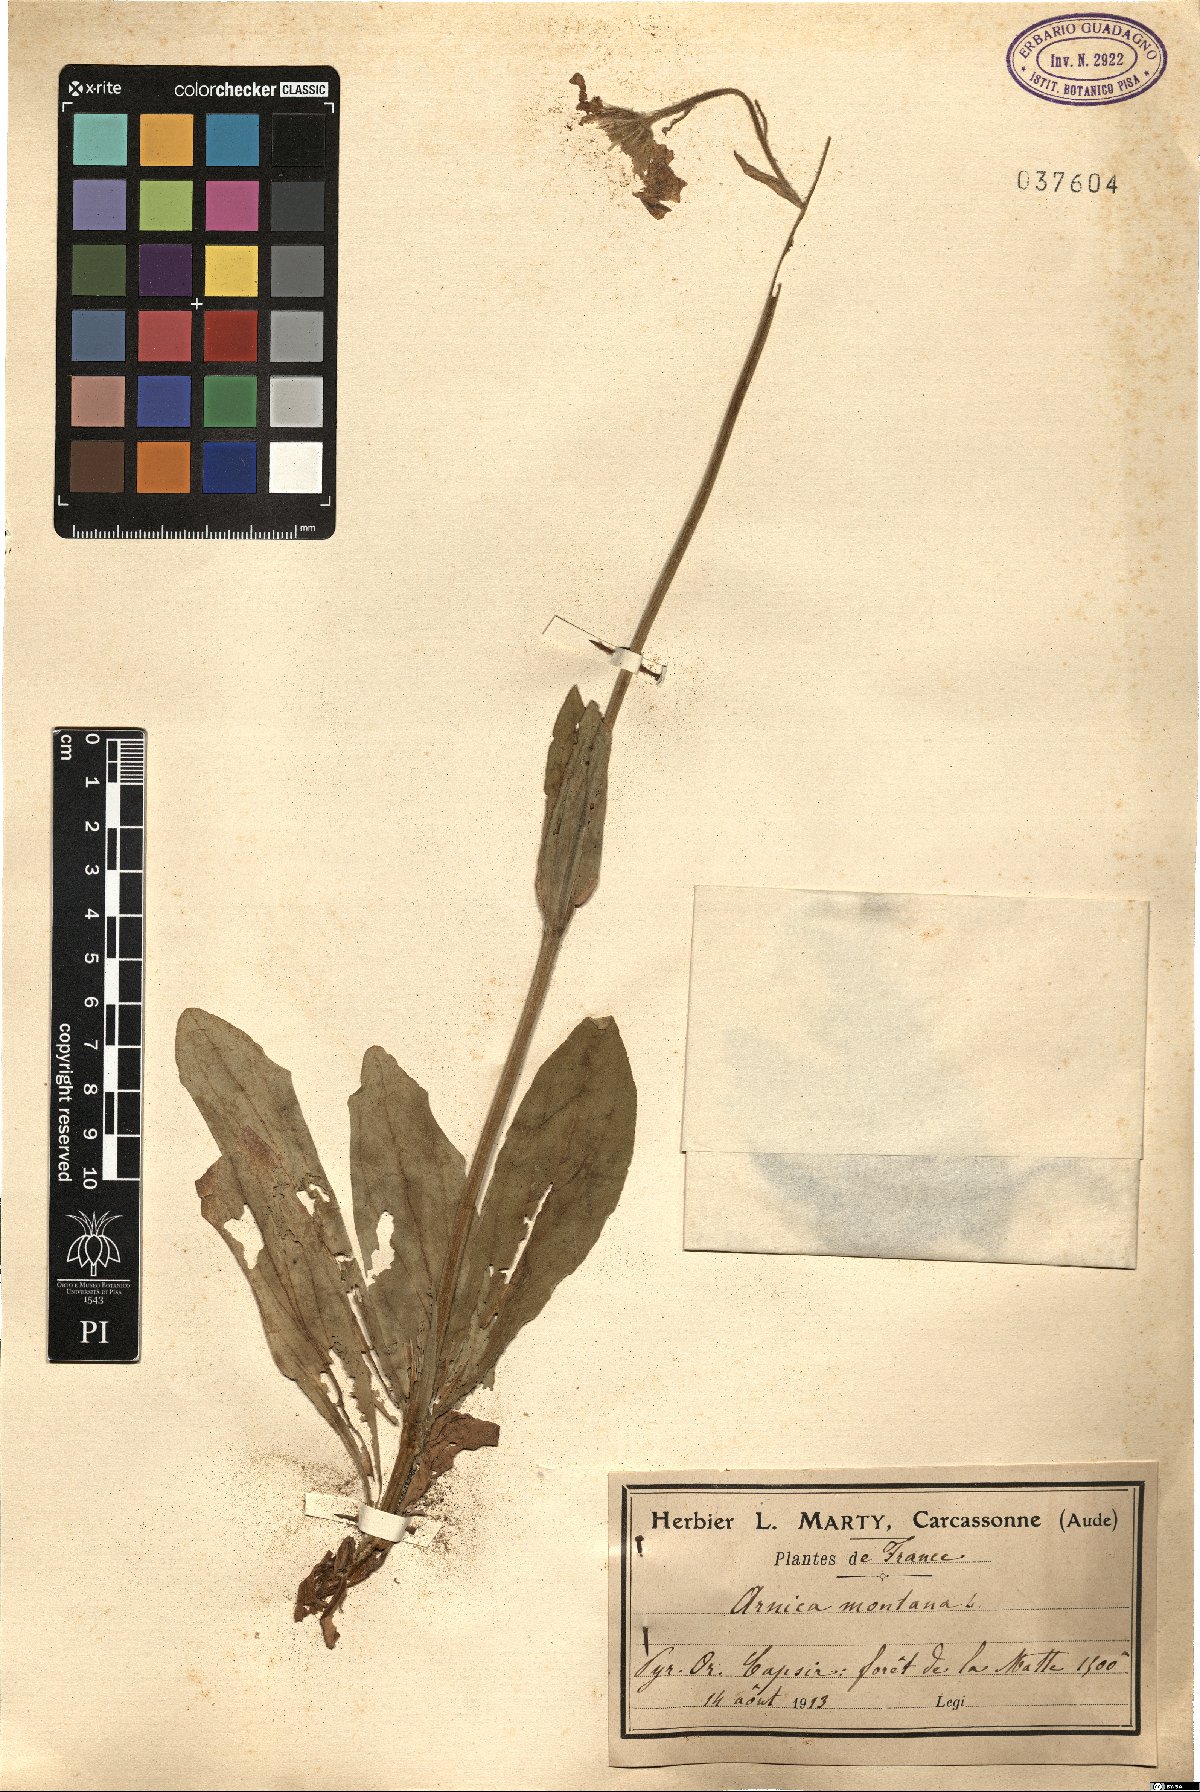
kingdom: Plantae
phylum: Tracheophyta
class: Magnoliopsida
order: Asterales
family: Asteraceae
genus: Arnica
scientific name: Arnica montana
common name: Leopard's bane
